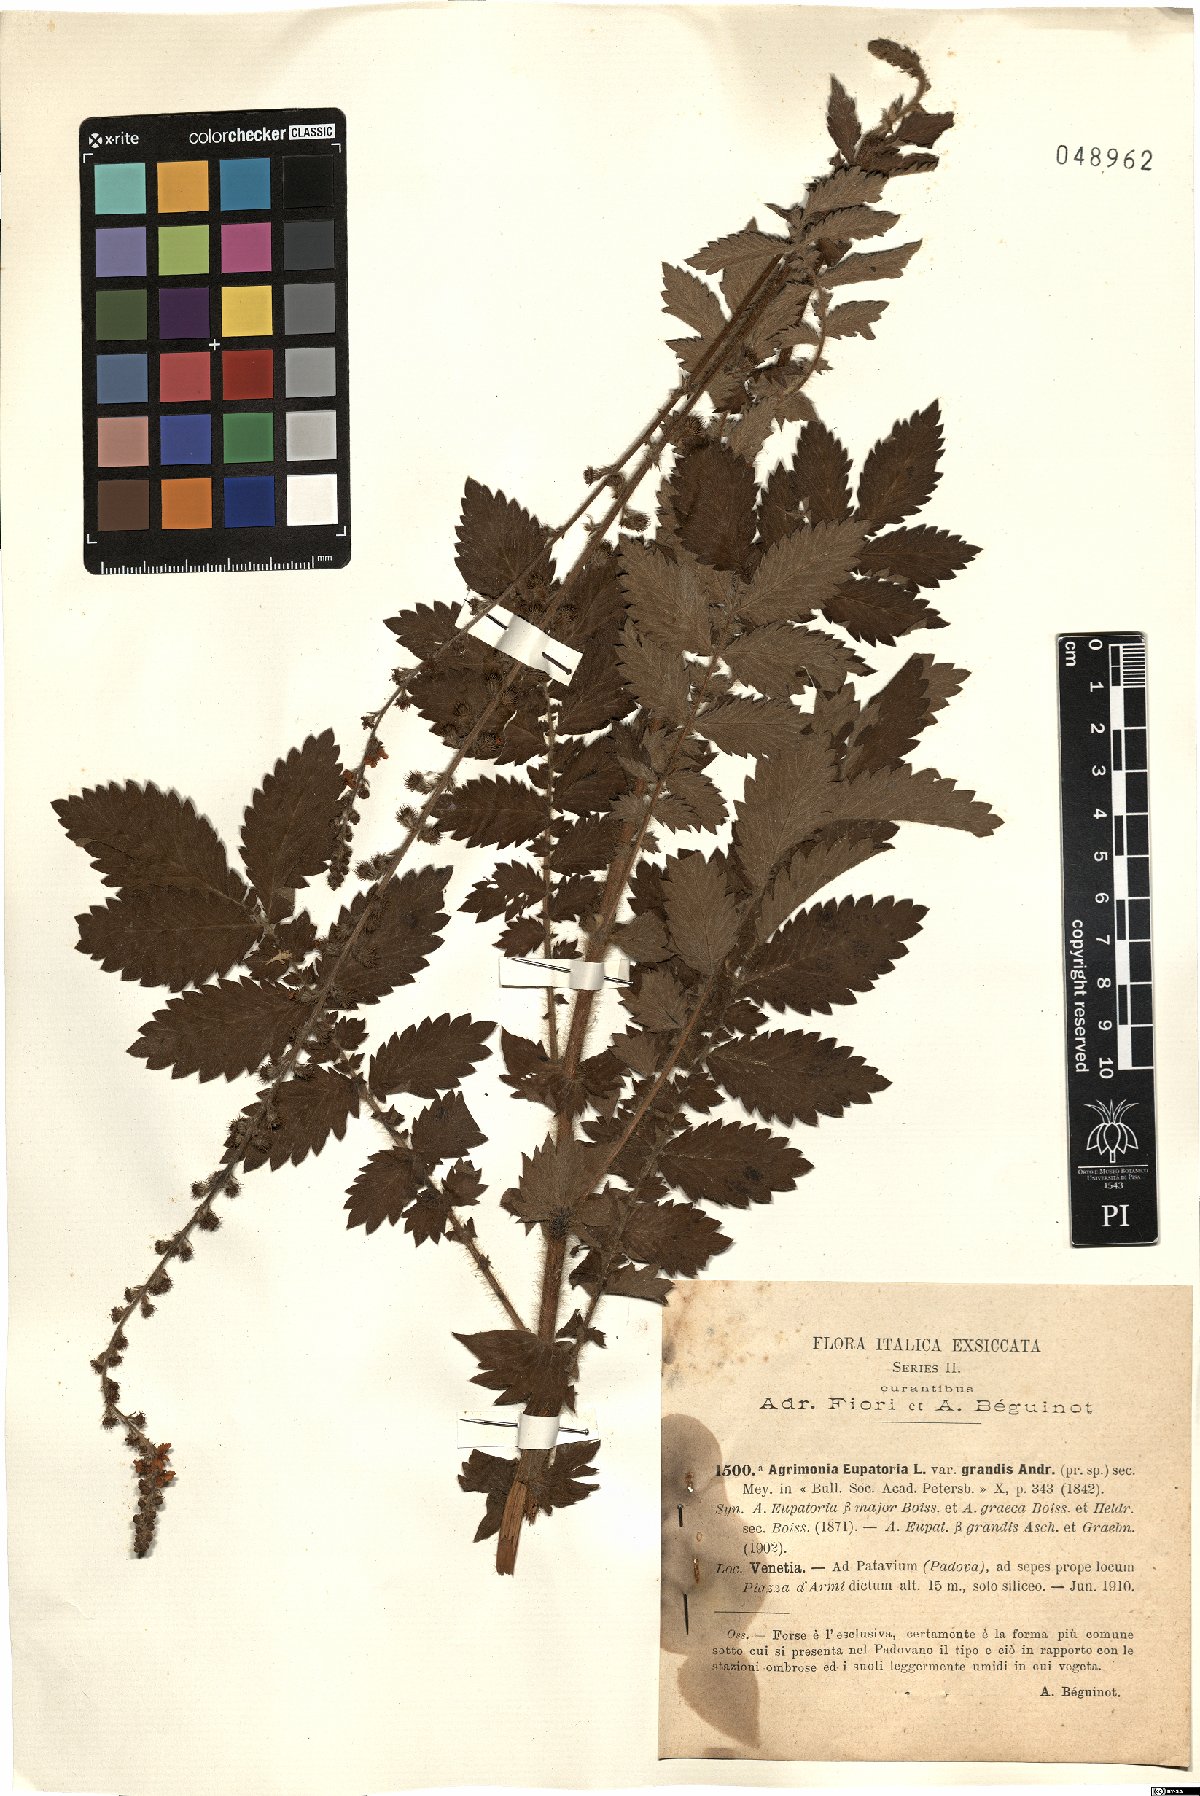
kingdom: Plantae
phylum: Tracheophyta
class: Magnoliopsida
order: Rosales
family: Rosaceae
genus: Agrimonia
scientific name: Agrimonia eupatoria
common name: Agrimony
